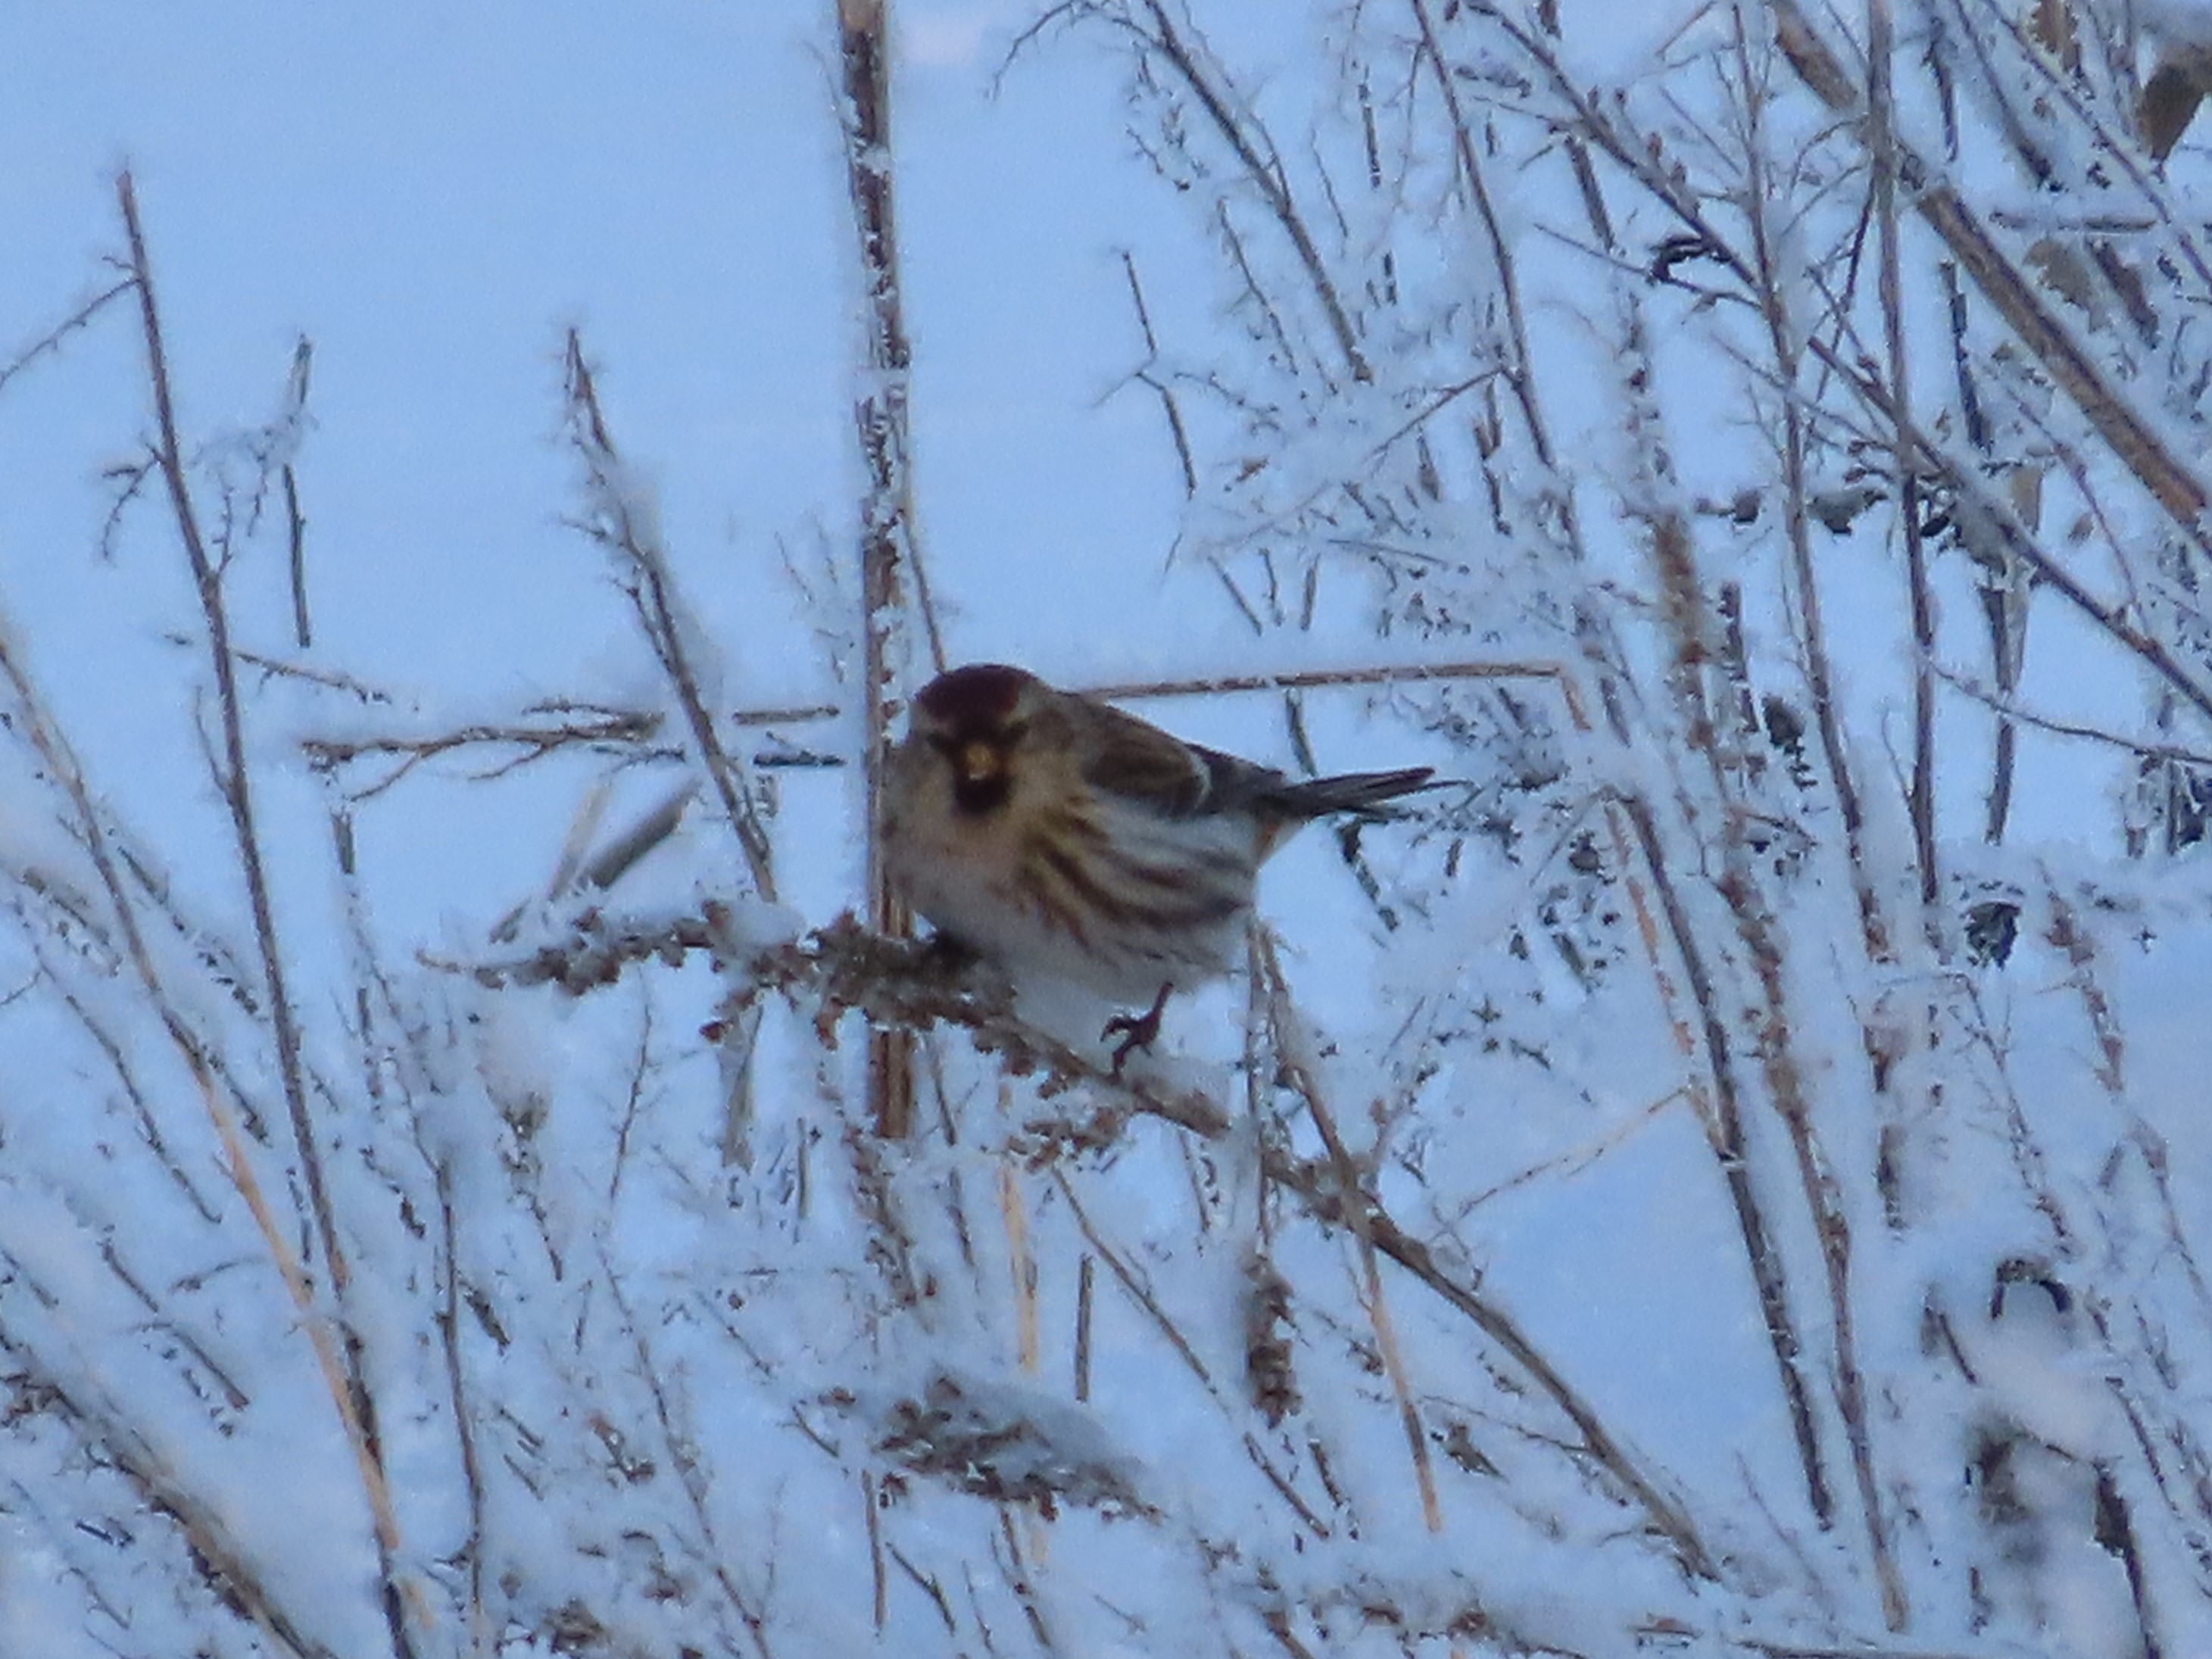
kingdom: Animalia
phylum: Chordata
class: Aves
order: Passeriformes
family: Fringillidae
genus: Acanthis
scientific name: Acanthis flammea
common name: Nordlig gråsisken
